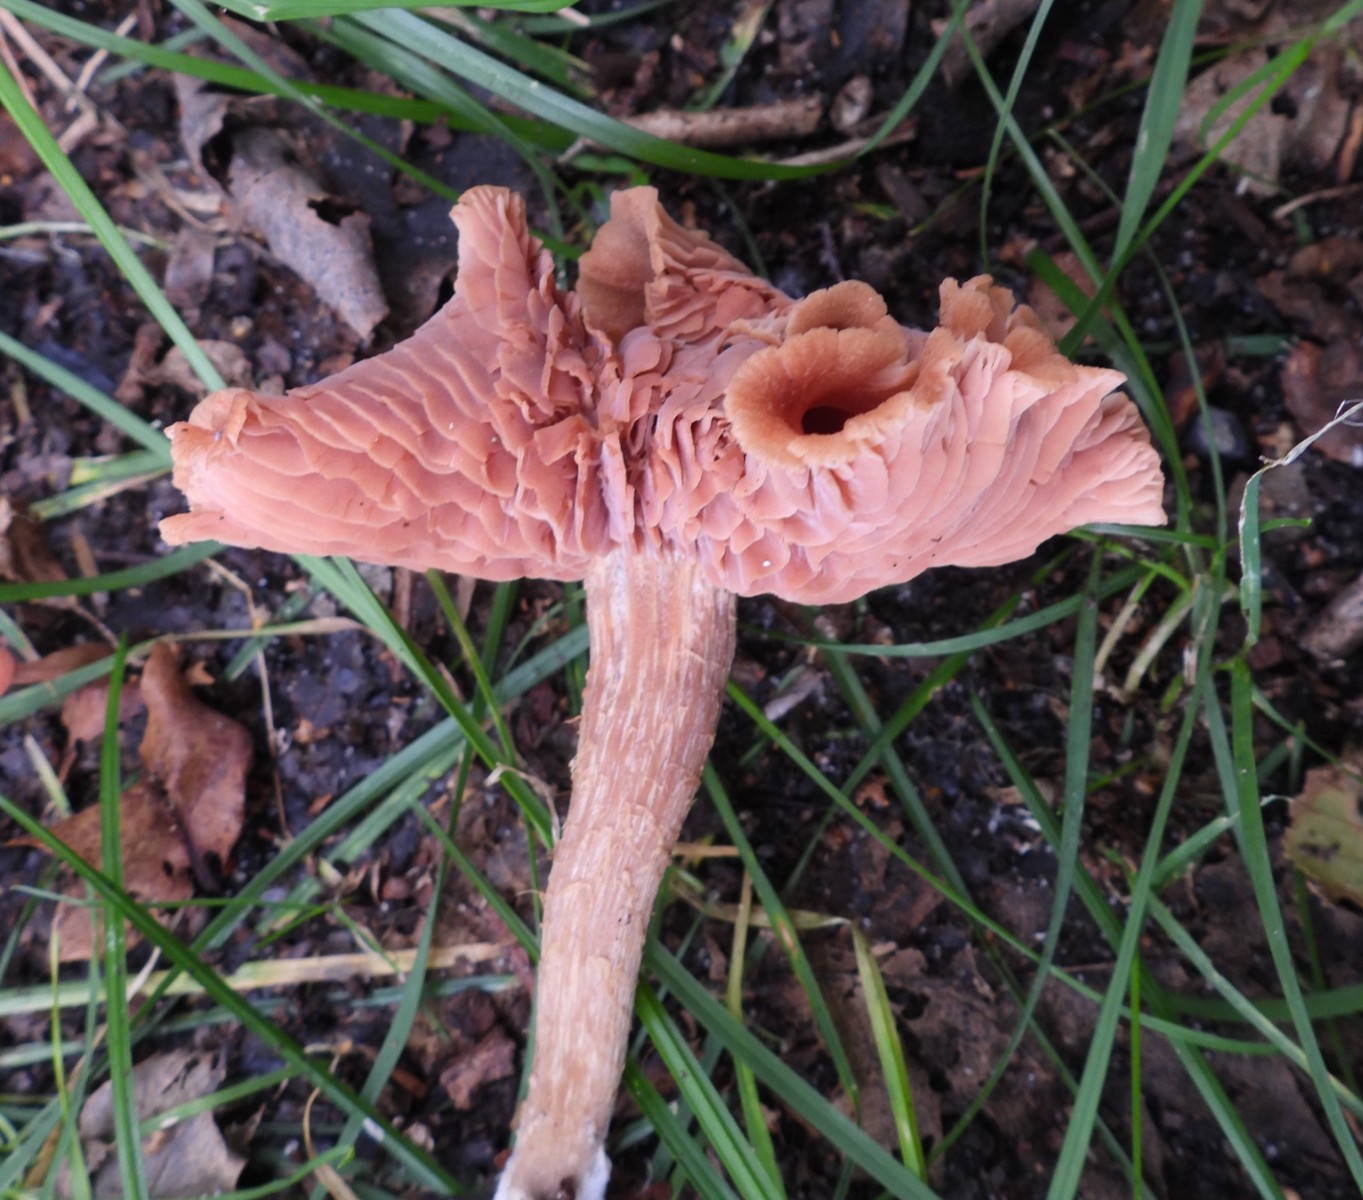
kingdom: Fungi
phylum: Basidiomycota
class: Agaricomycetes
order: Agaricales
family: Hydnangiaceae
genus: Laccaria
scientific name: Laccaria laccata
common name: rød ametysthat
